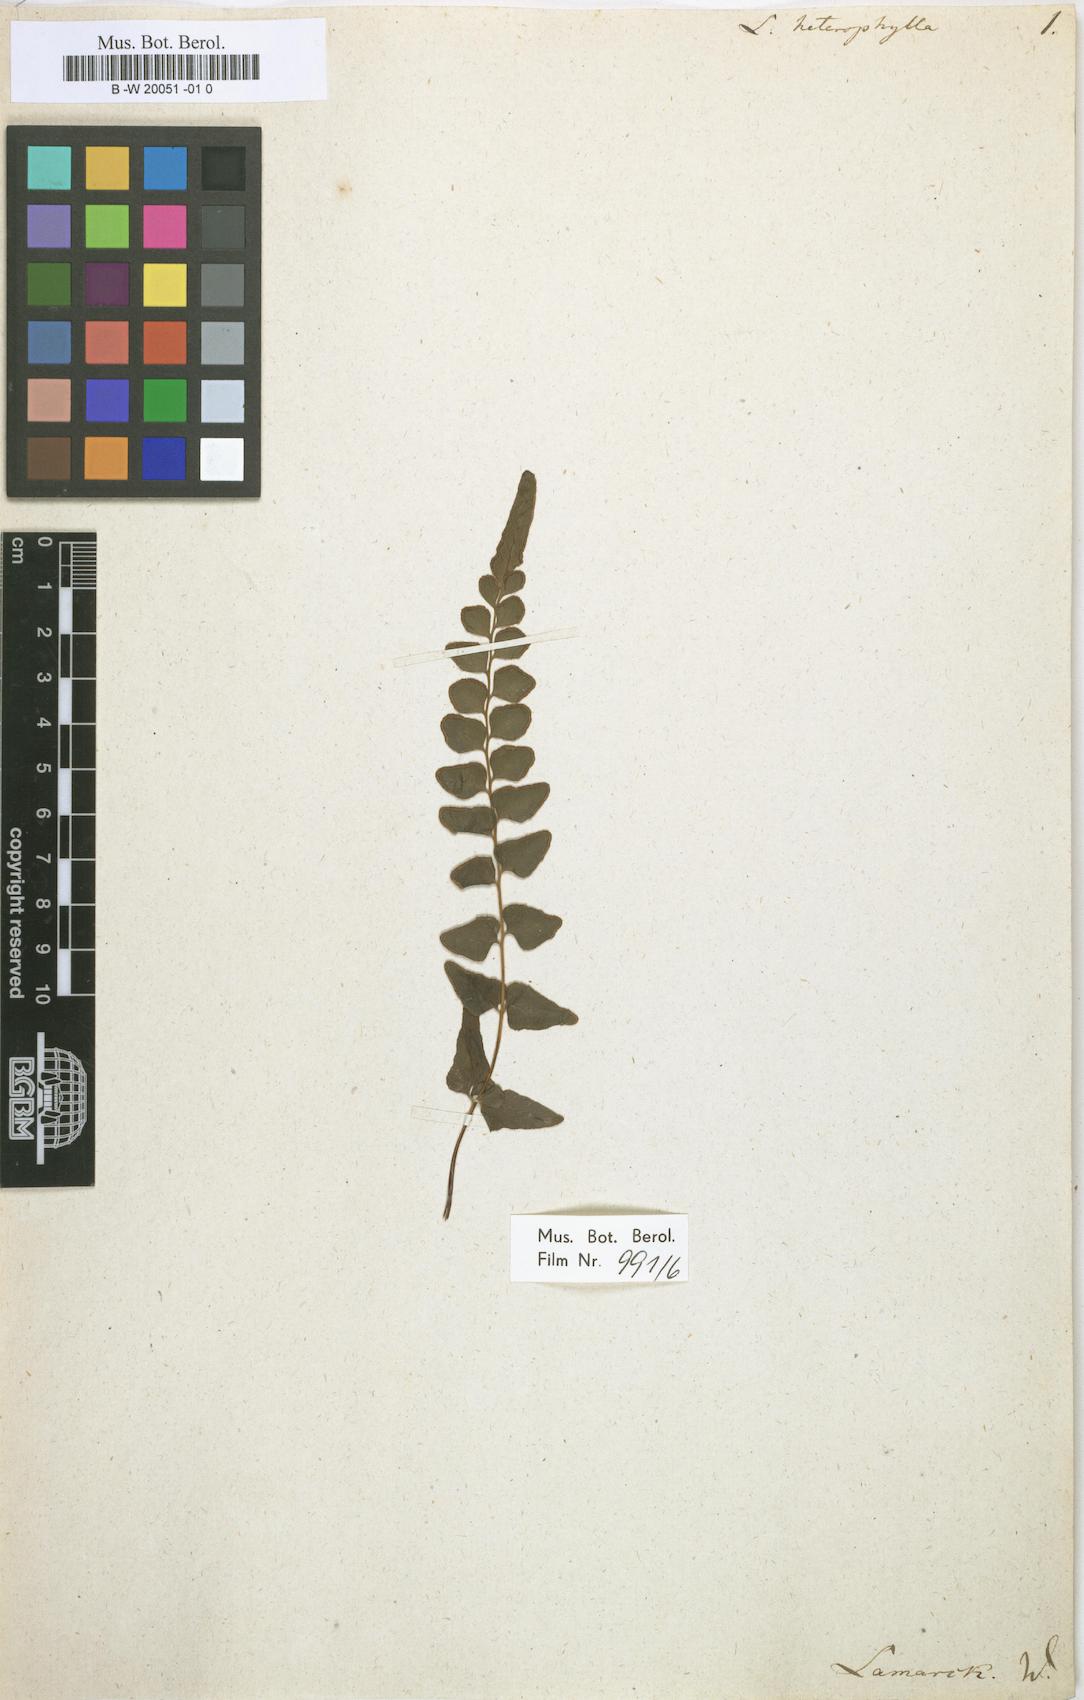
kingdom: Plantae
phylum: Tracheophyta
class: Polypodiopsida
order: Polypodiales
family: Lindsaeaceae
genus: Lindsaea
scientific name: Lindsaea heterophylla
